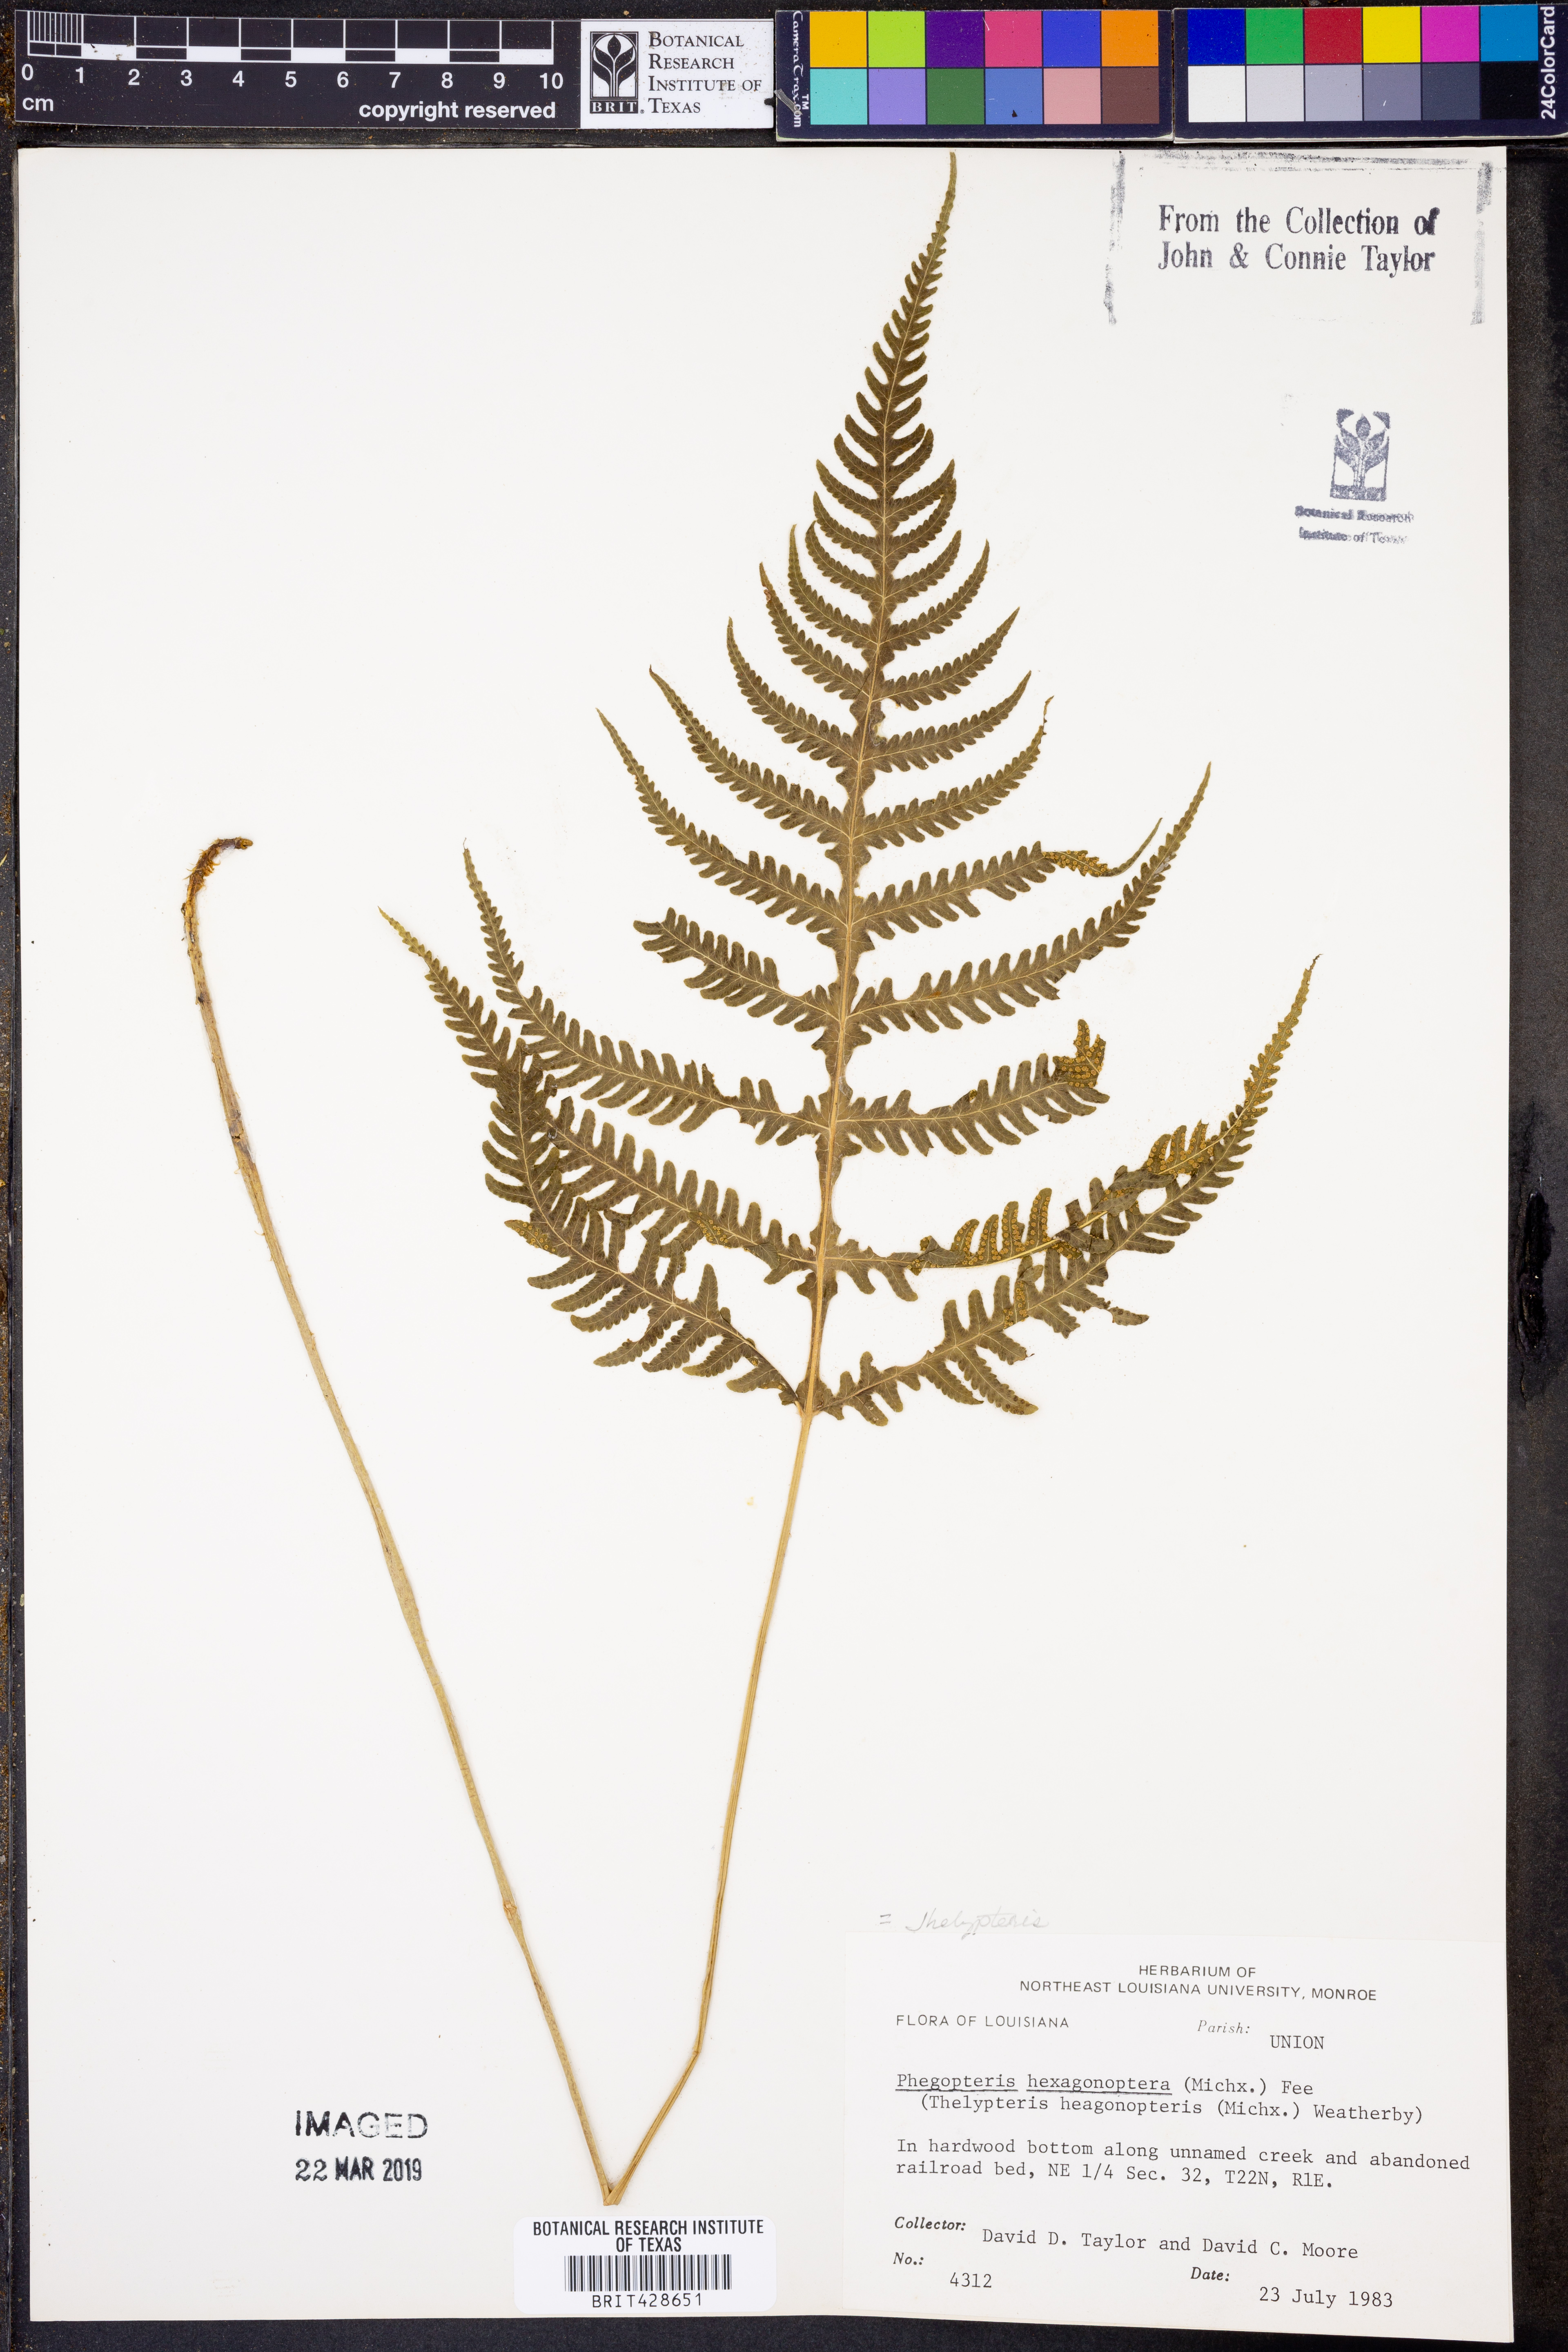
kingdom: Plantae
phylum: Tracheophyta
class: Polypodiopsida
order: Polypodiales
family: Thelypteridaceae
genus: Phegopteris
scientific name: Phegopteris hexagonoptera
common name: Broad beech fern
